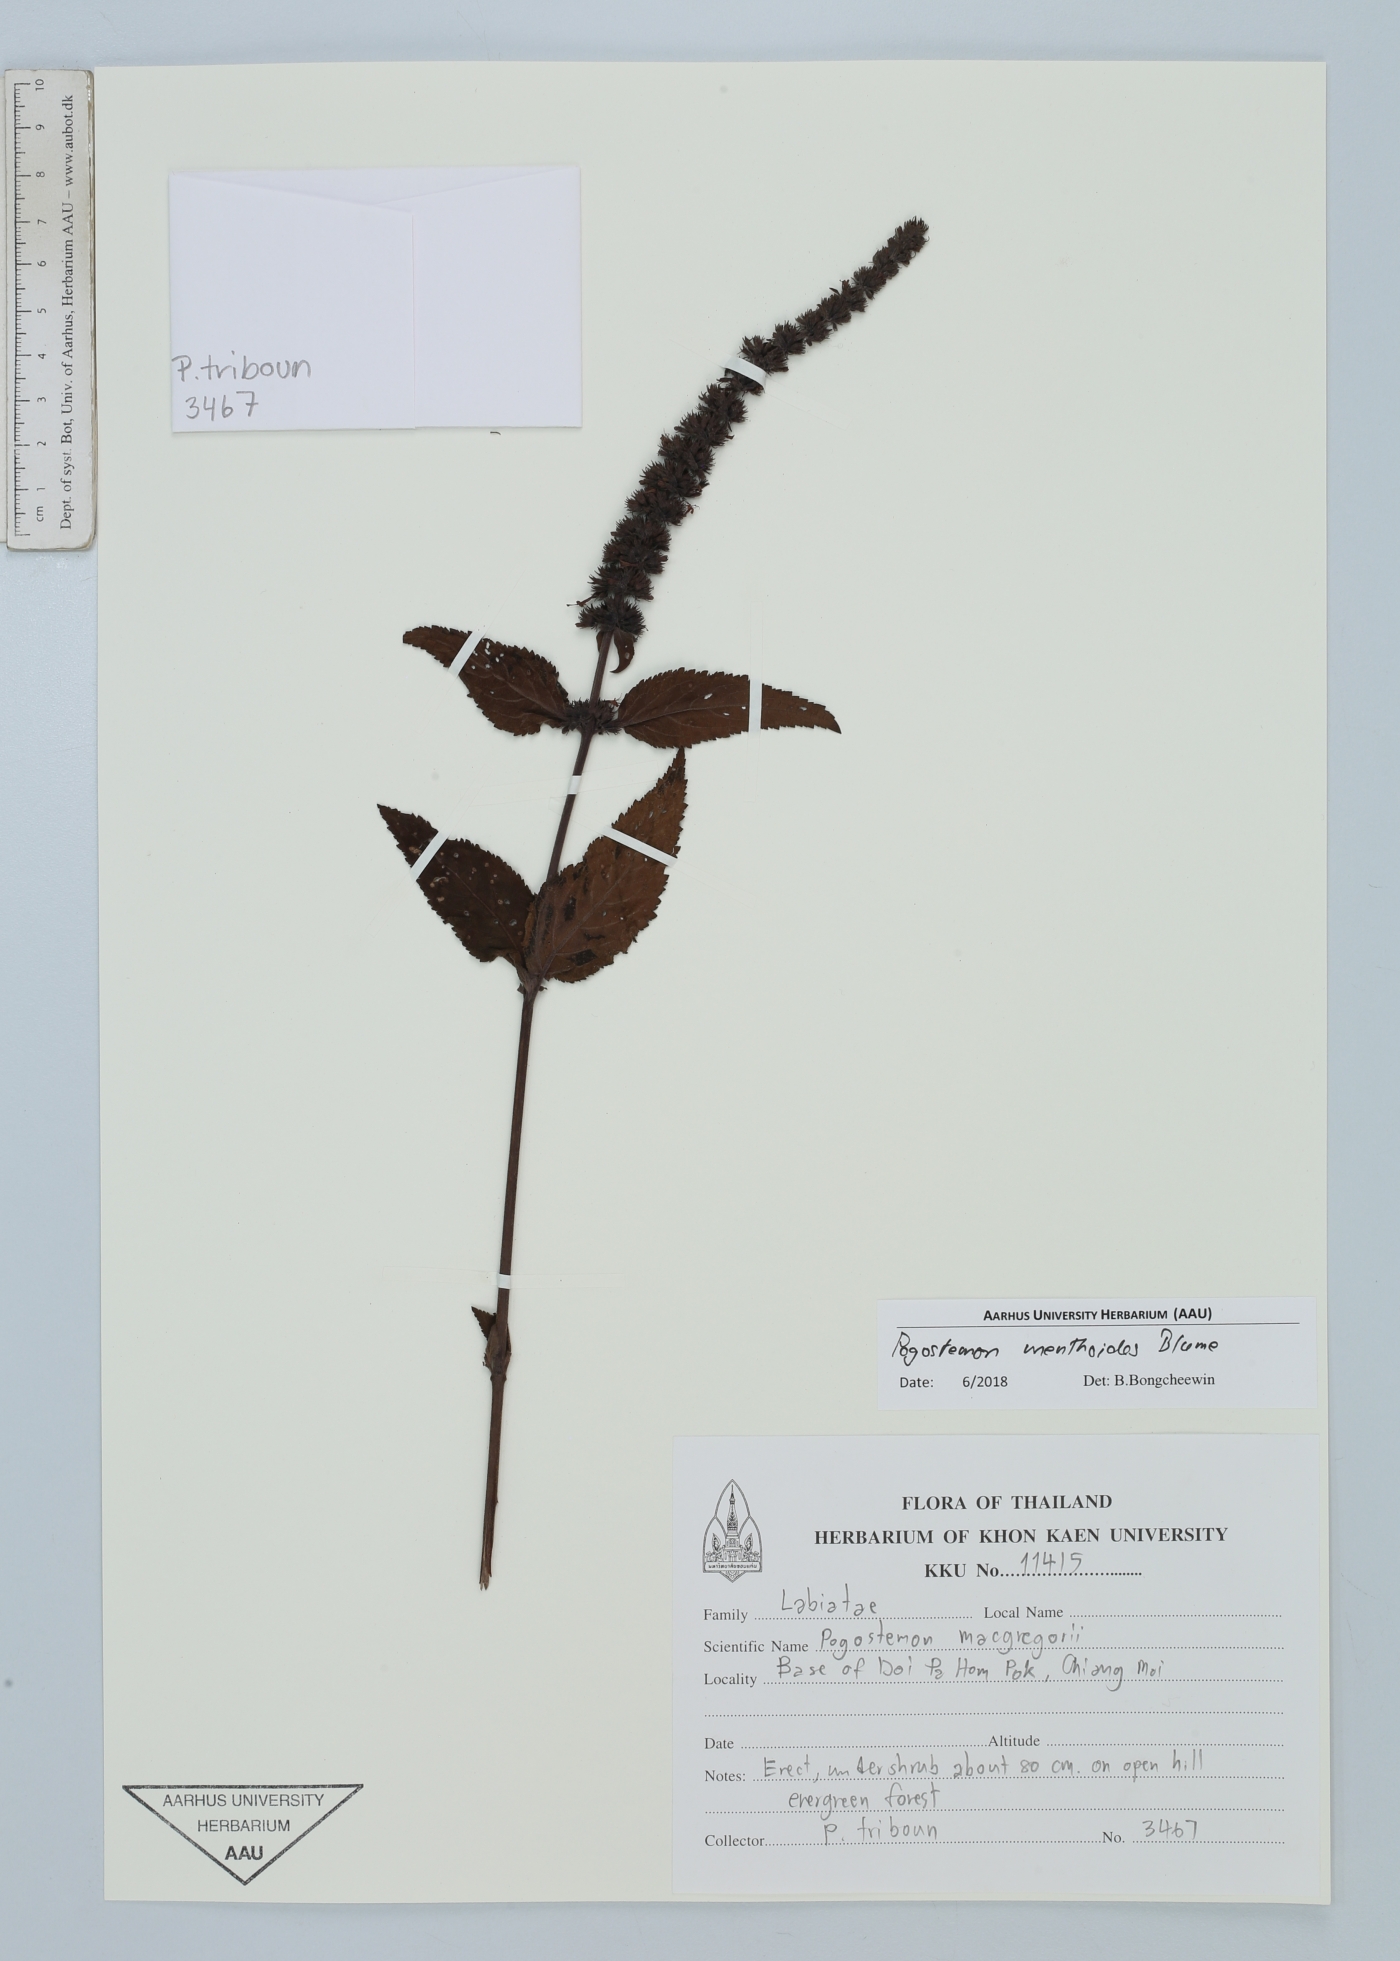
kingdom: Plantae
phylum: Tracheophyta
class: Magnoliopsida
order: Lamiales
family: Lamiaceae
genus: Pogostemon
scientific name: Pogostemon menthoides
